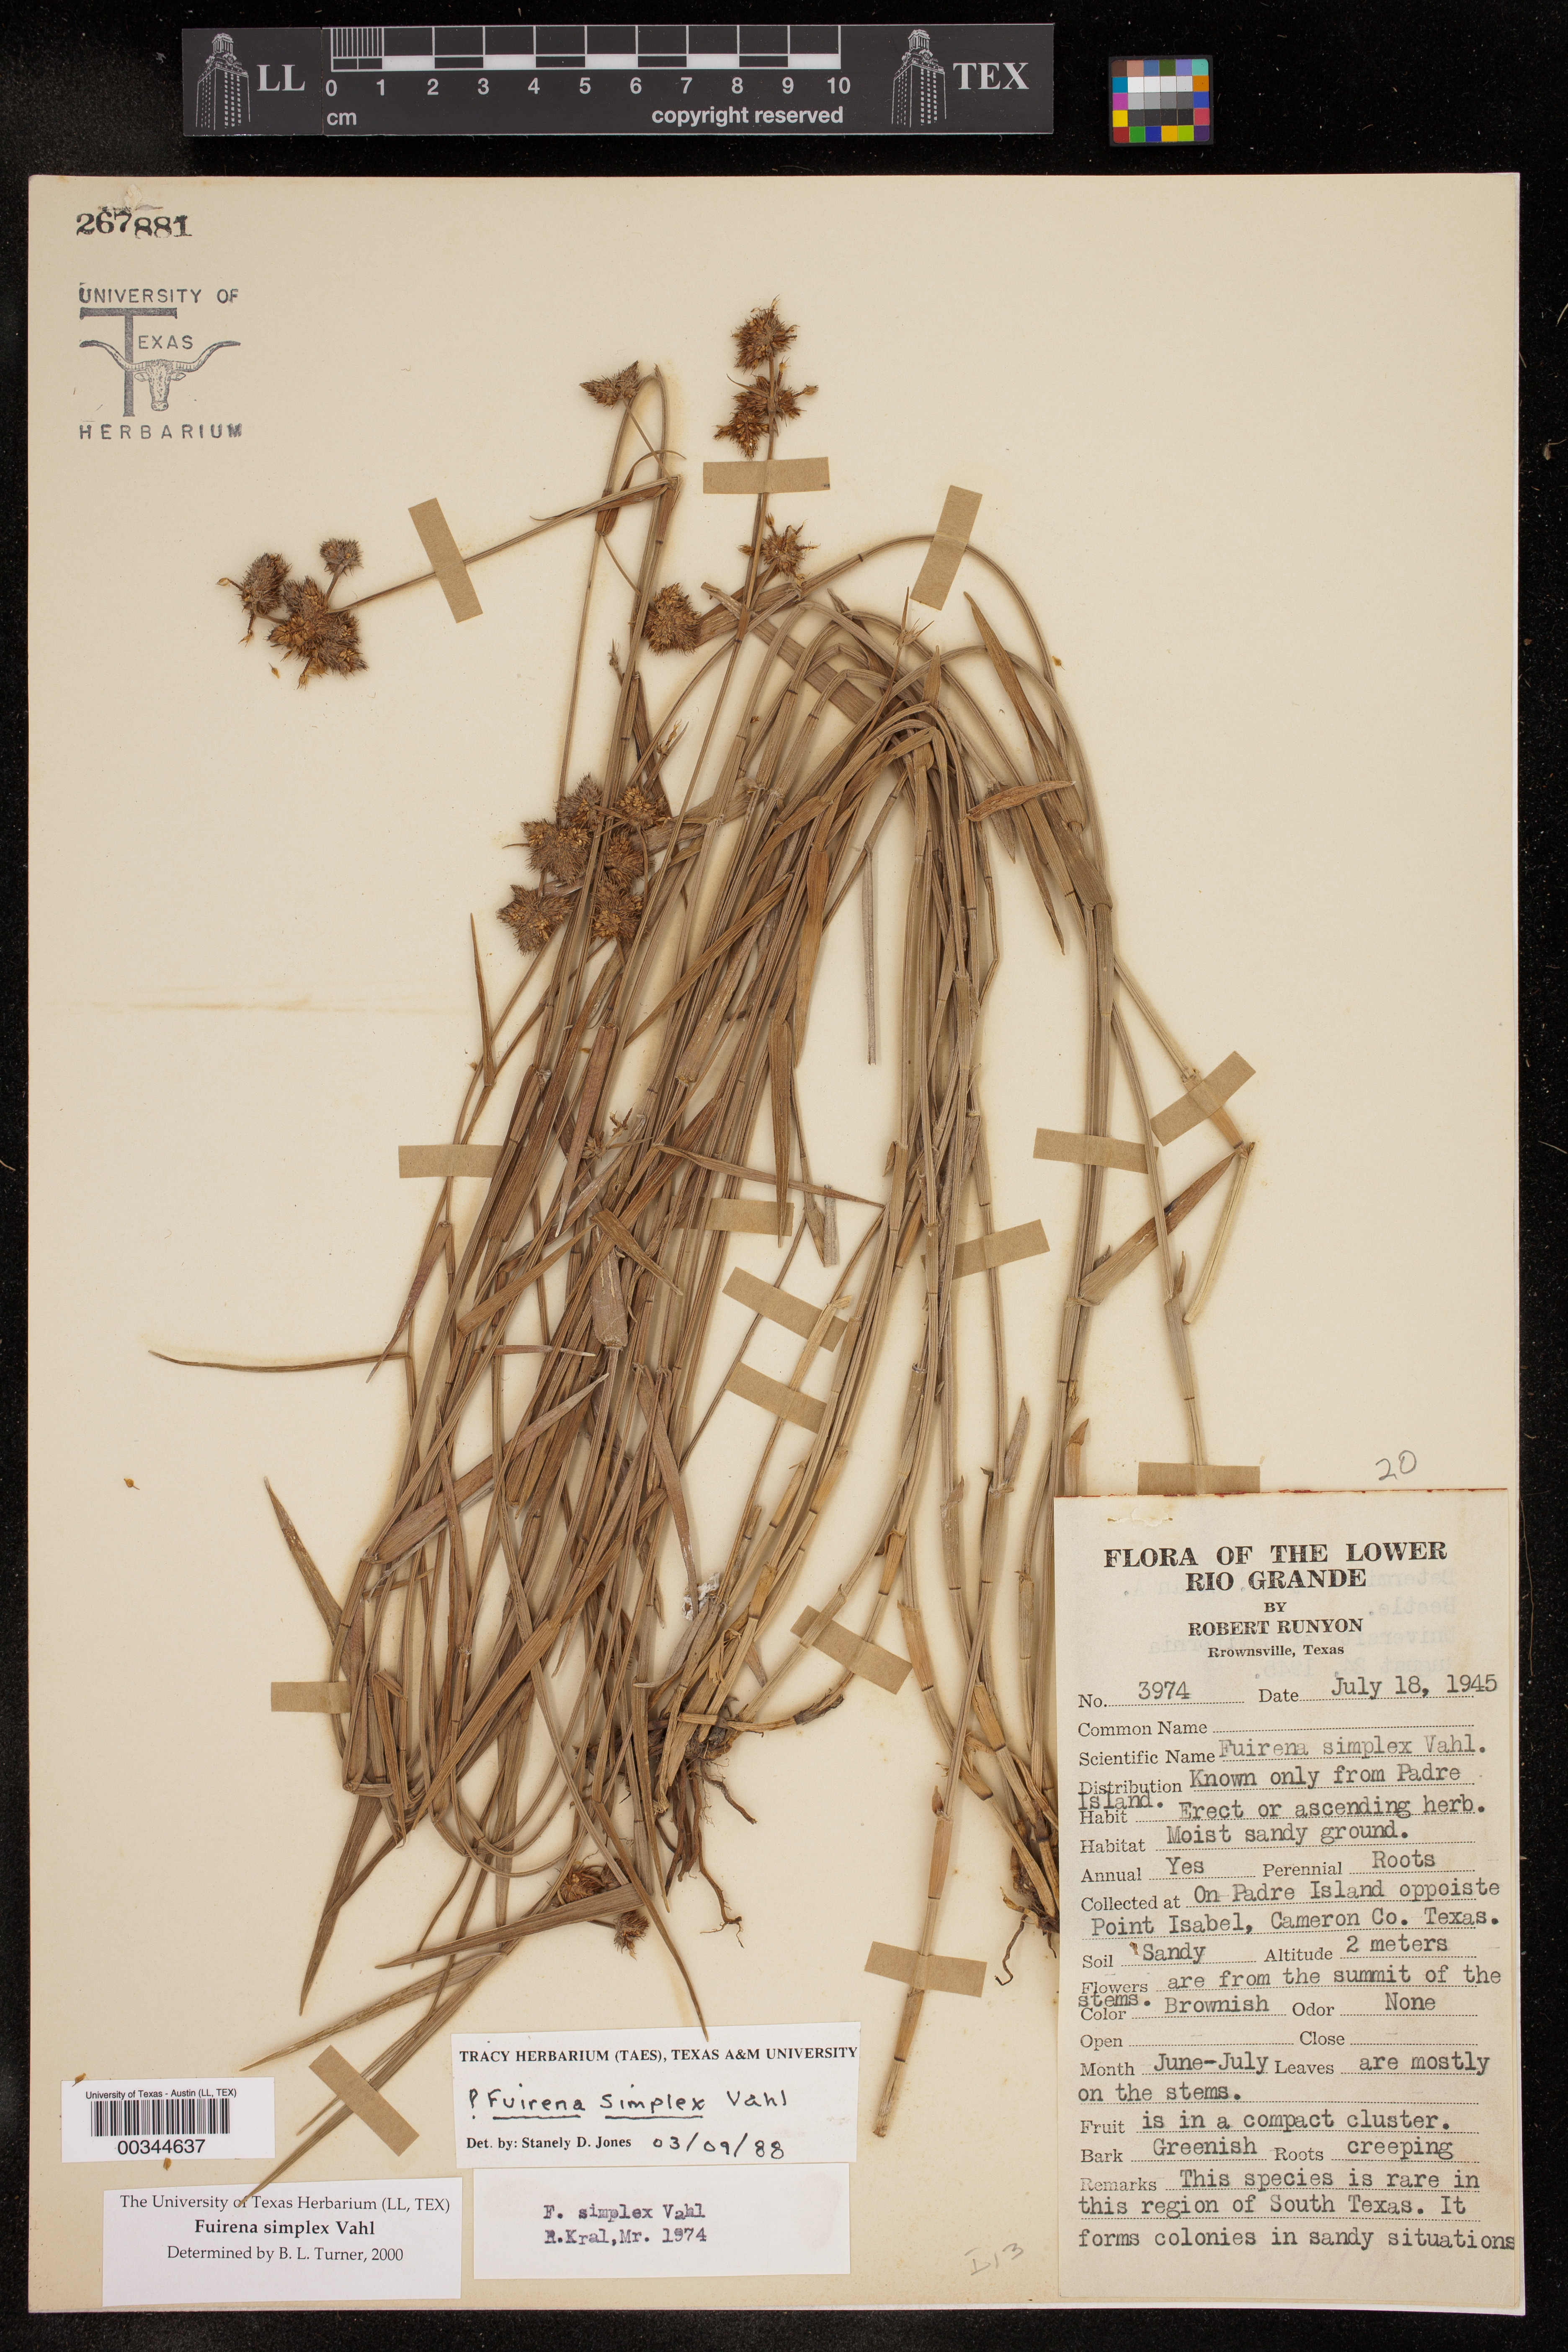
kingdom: Plantae
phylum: Tracheophyta
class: Liliopsida
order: Poales
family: Cyperaceae
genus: Fuirena
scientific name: Fuirena simplex
